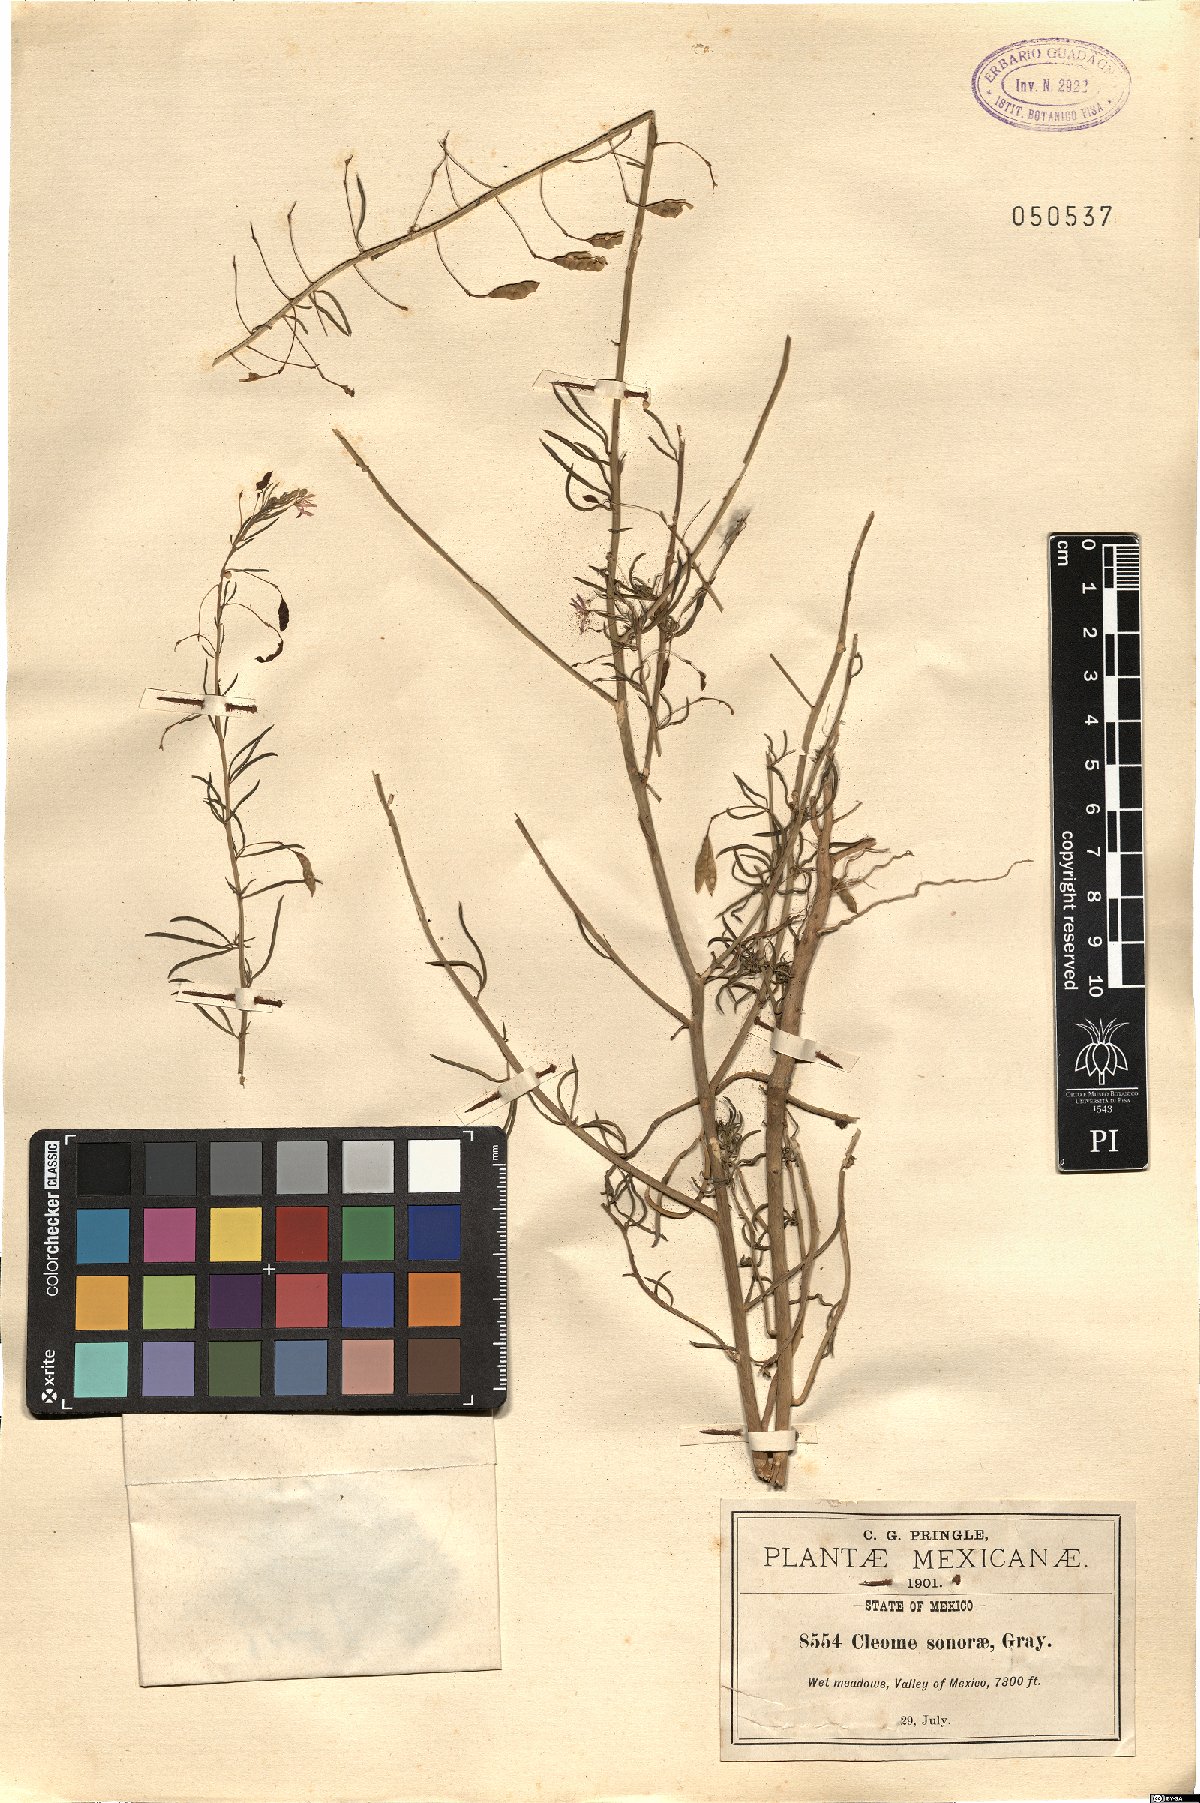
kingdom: Plantae
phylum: Tracheophyta
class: Magnoliopsida
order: Brassicales
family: Cleomaceae
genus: Cleomella
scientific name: Cleomella multicaulis
